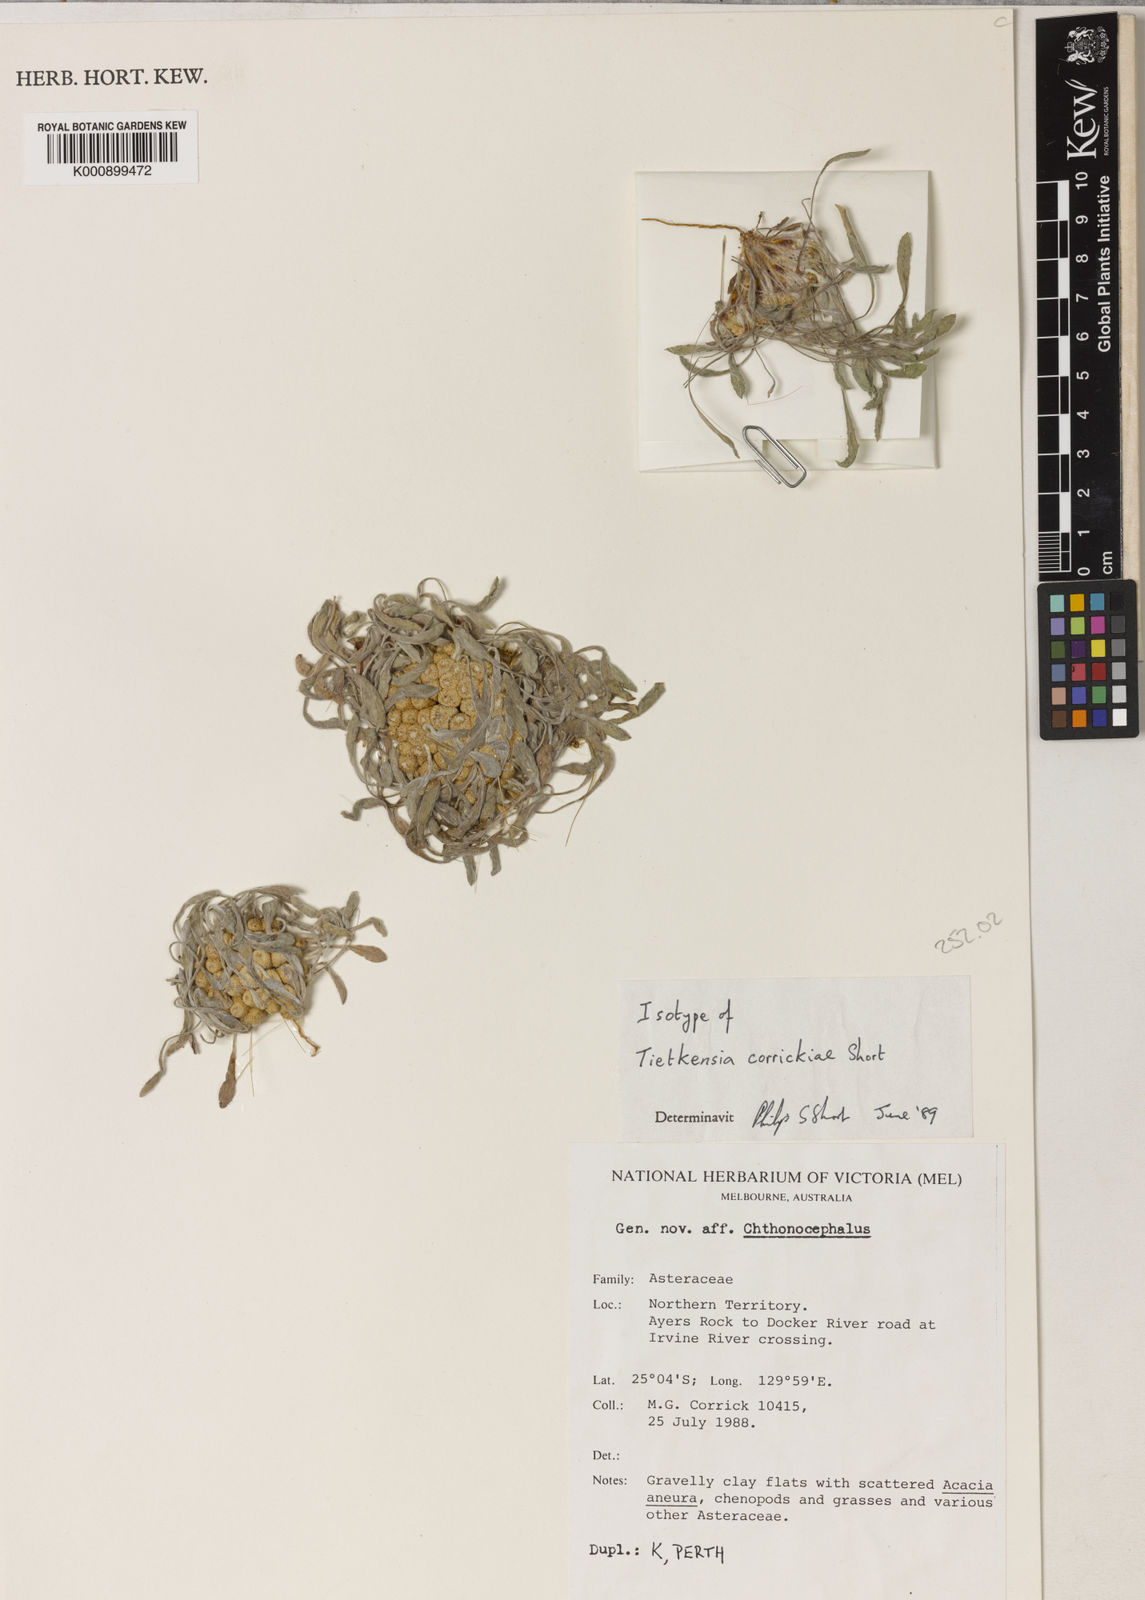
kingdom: Plantae
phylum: Tracheophyta
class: Magnoliopsida
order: Asterales
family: Asteraceae
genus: Tietkensia
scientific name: Tietkensia corrickiae
